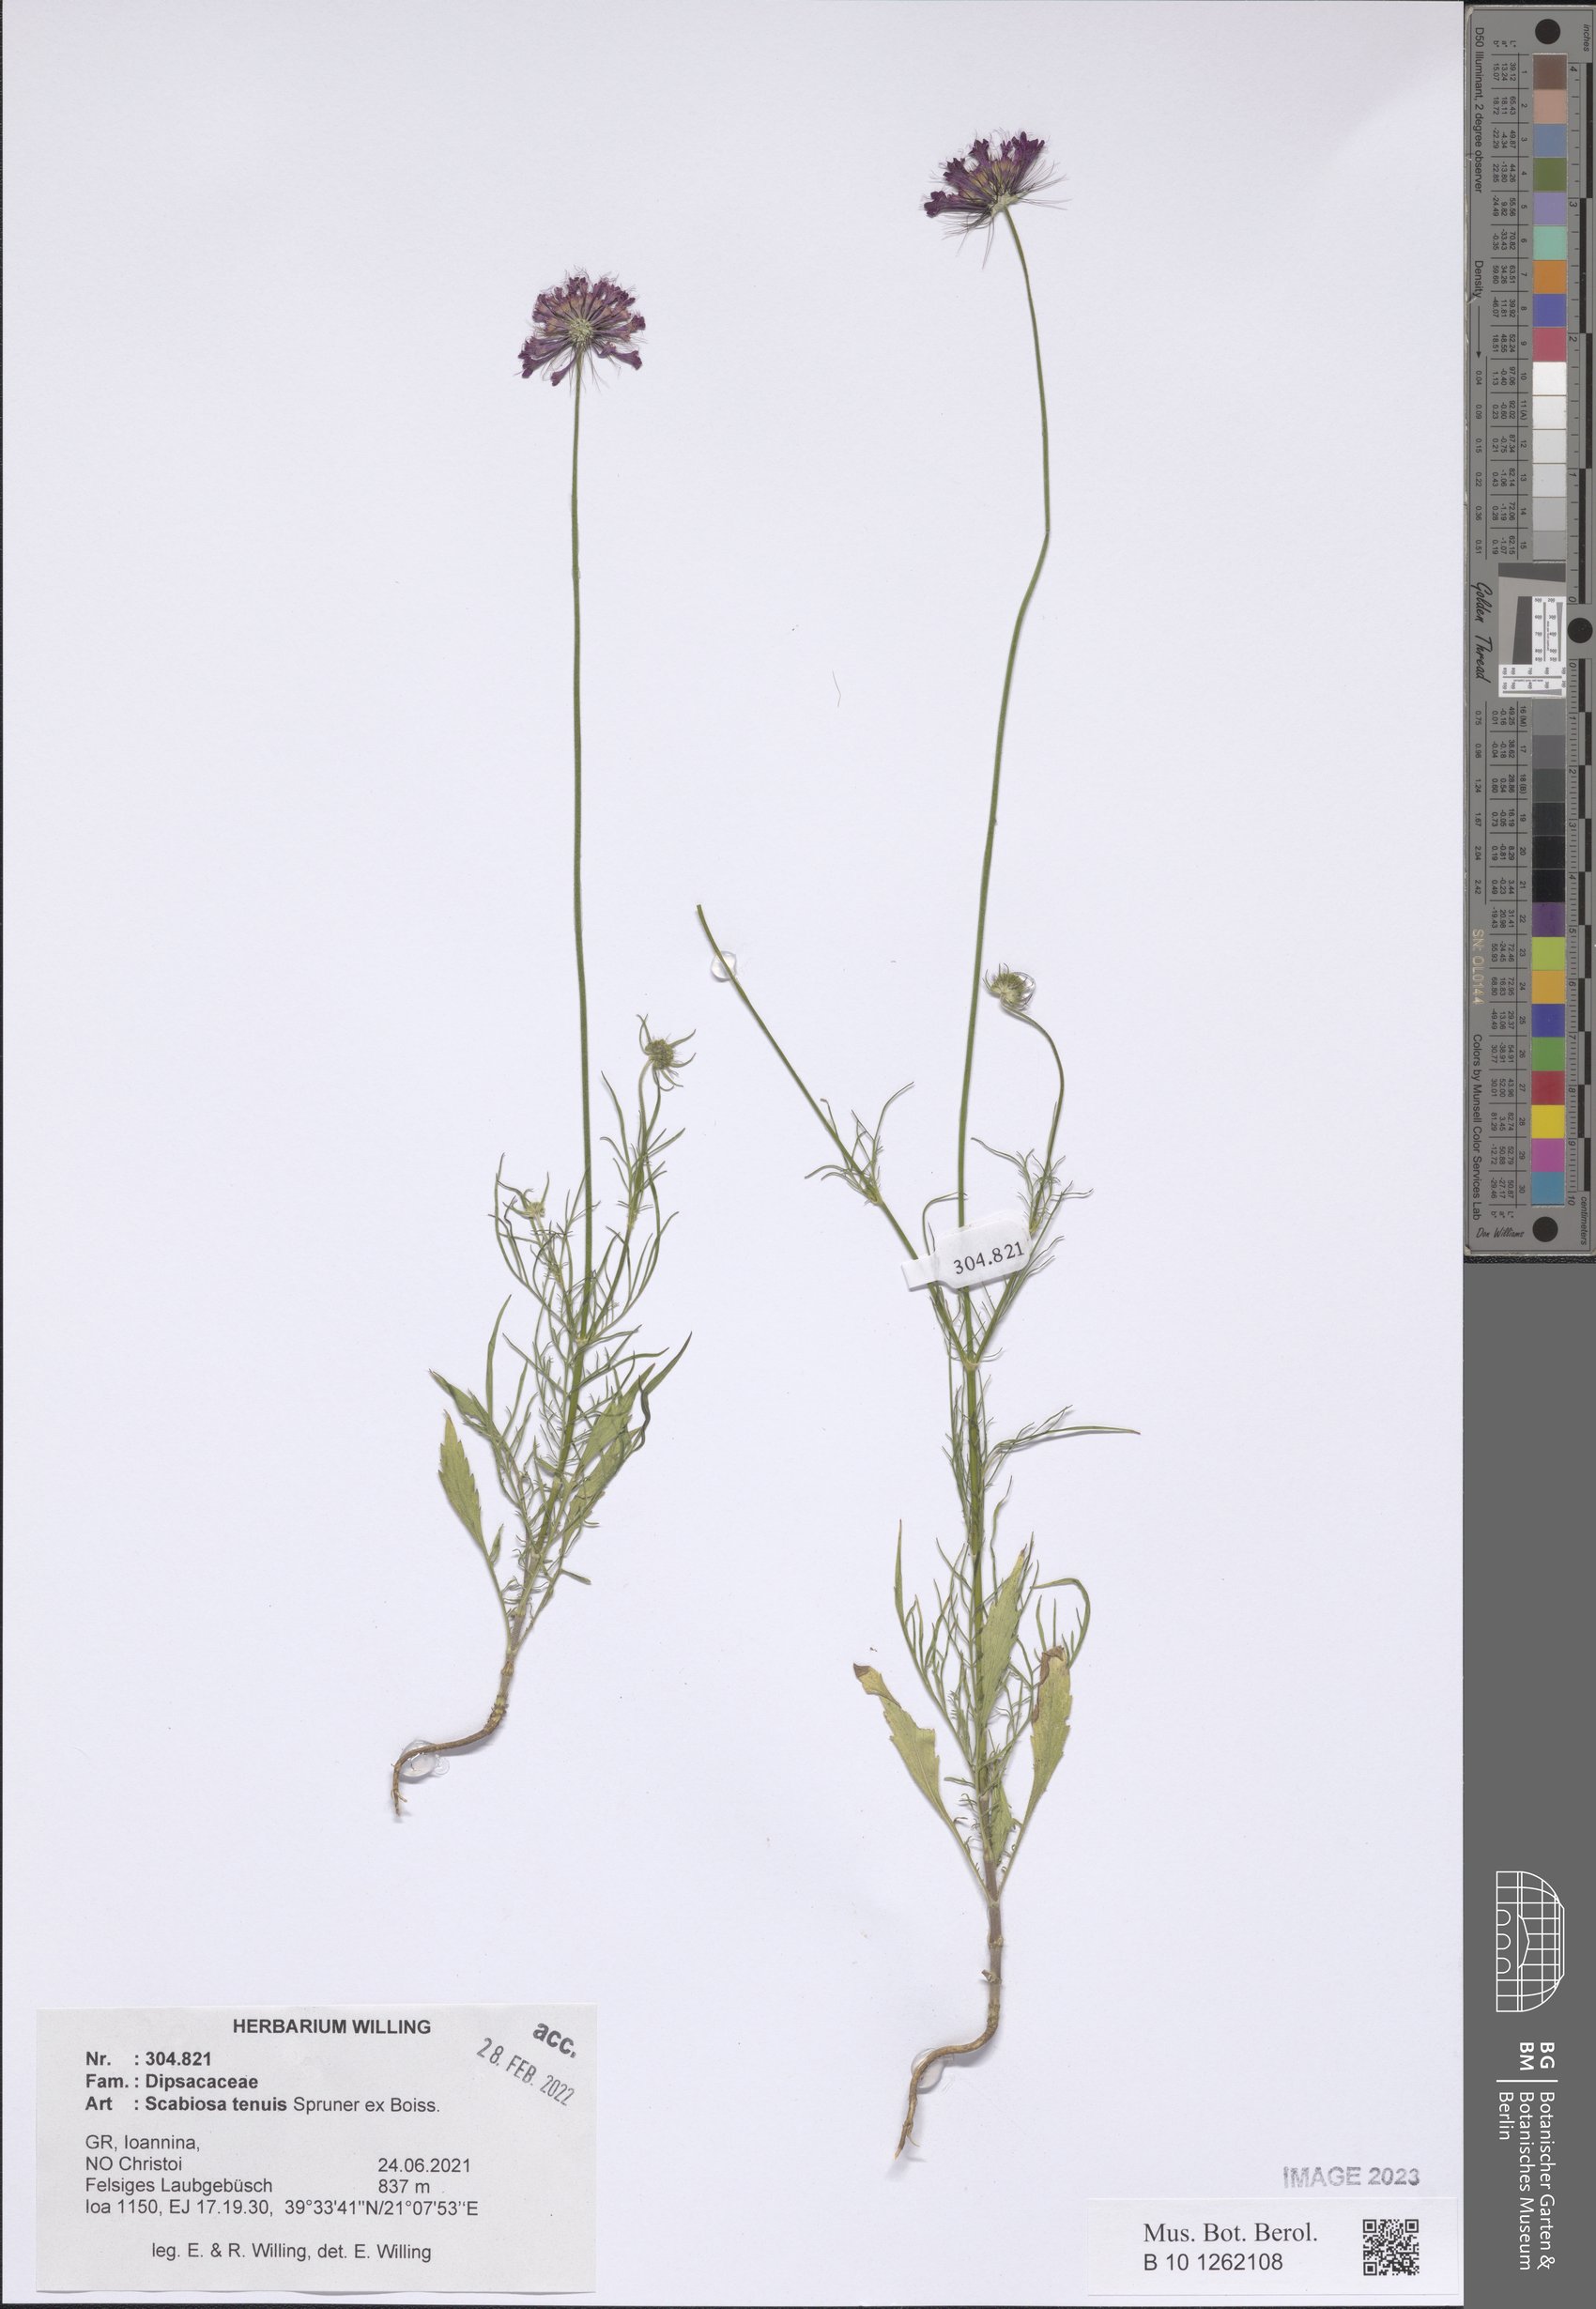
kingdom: Plantae
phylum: Tracheophyta
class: Magnoliopsida
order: Dipsacales
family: Caprifoliaceae
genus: Scabiosa
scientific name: Scabiosa tenuis
